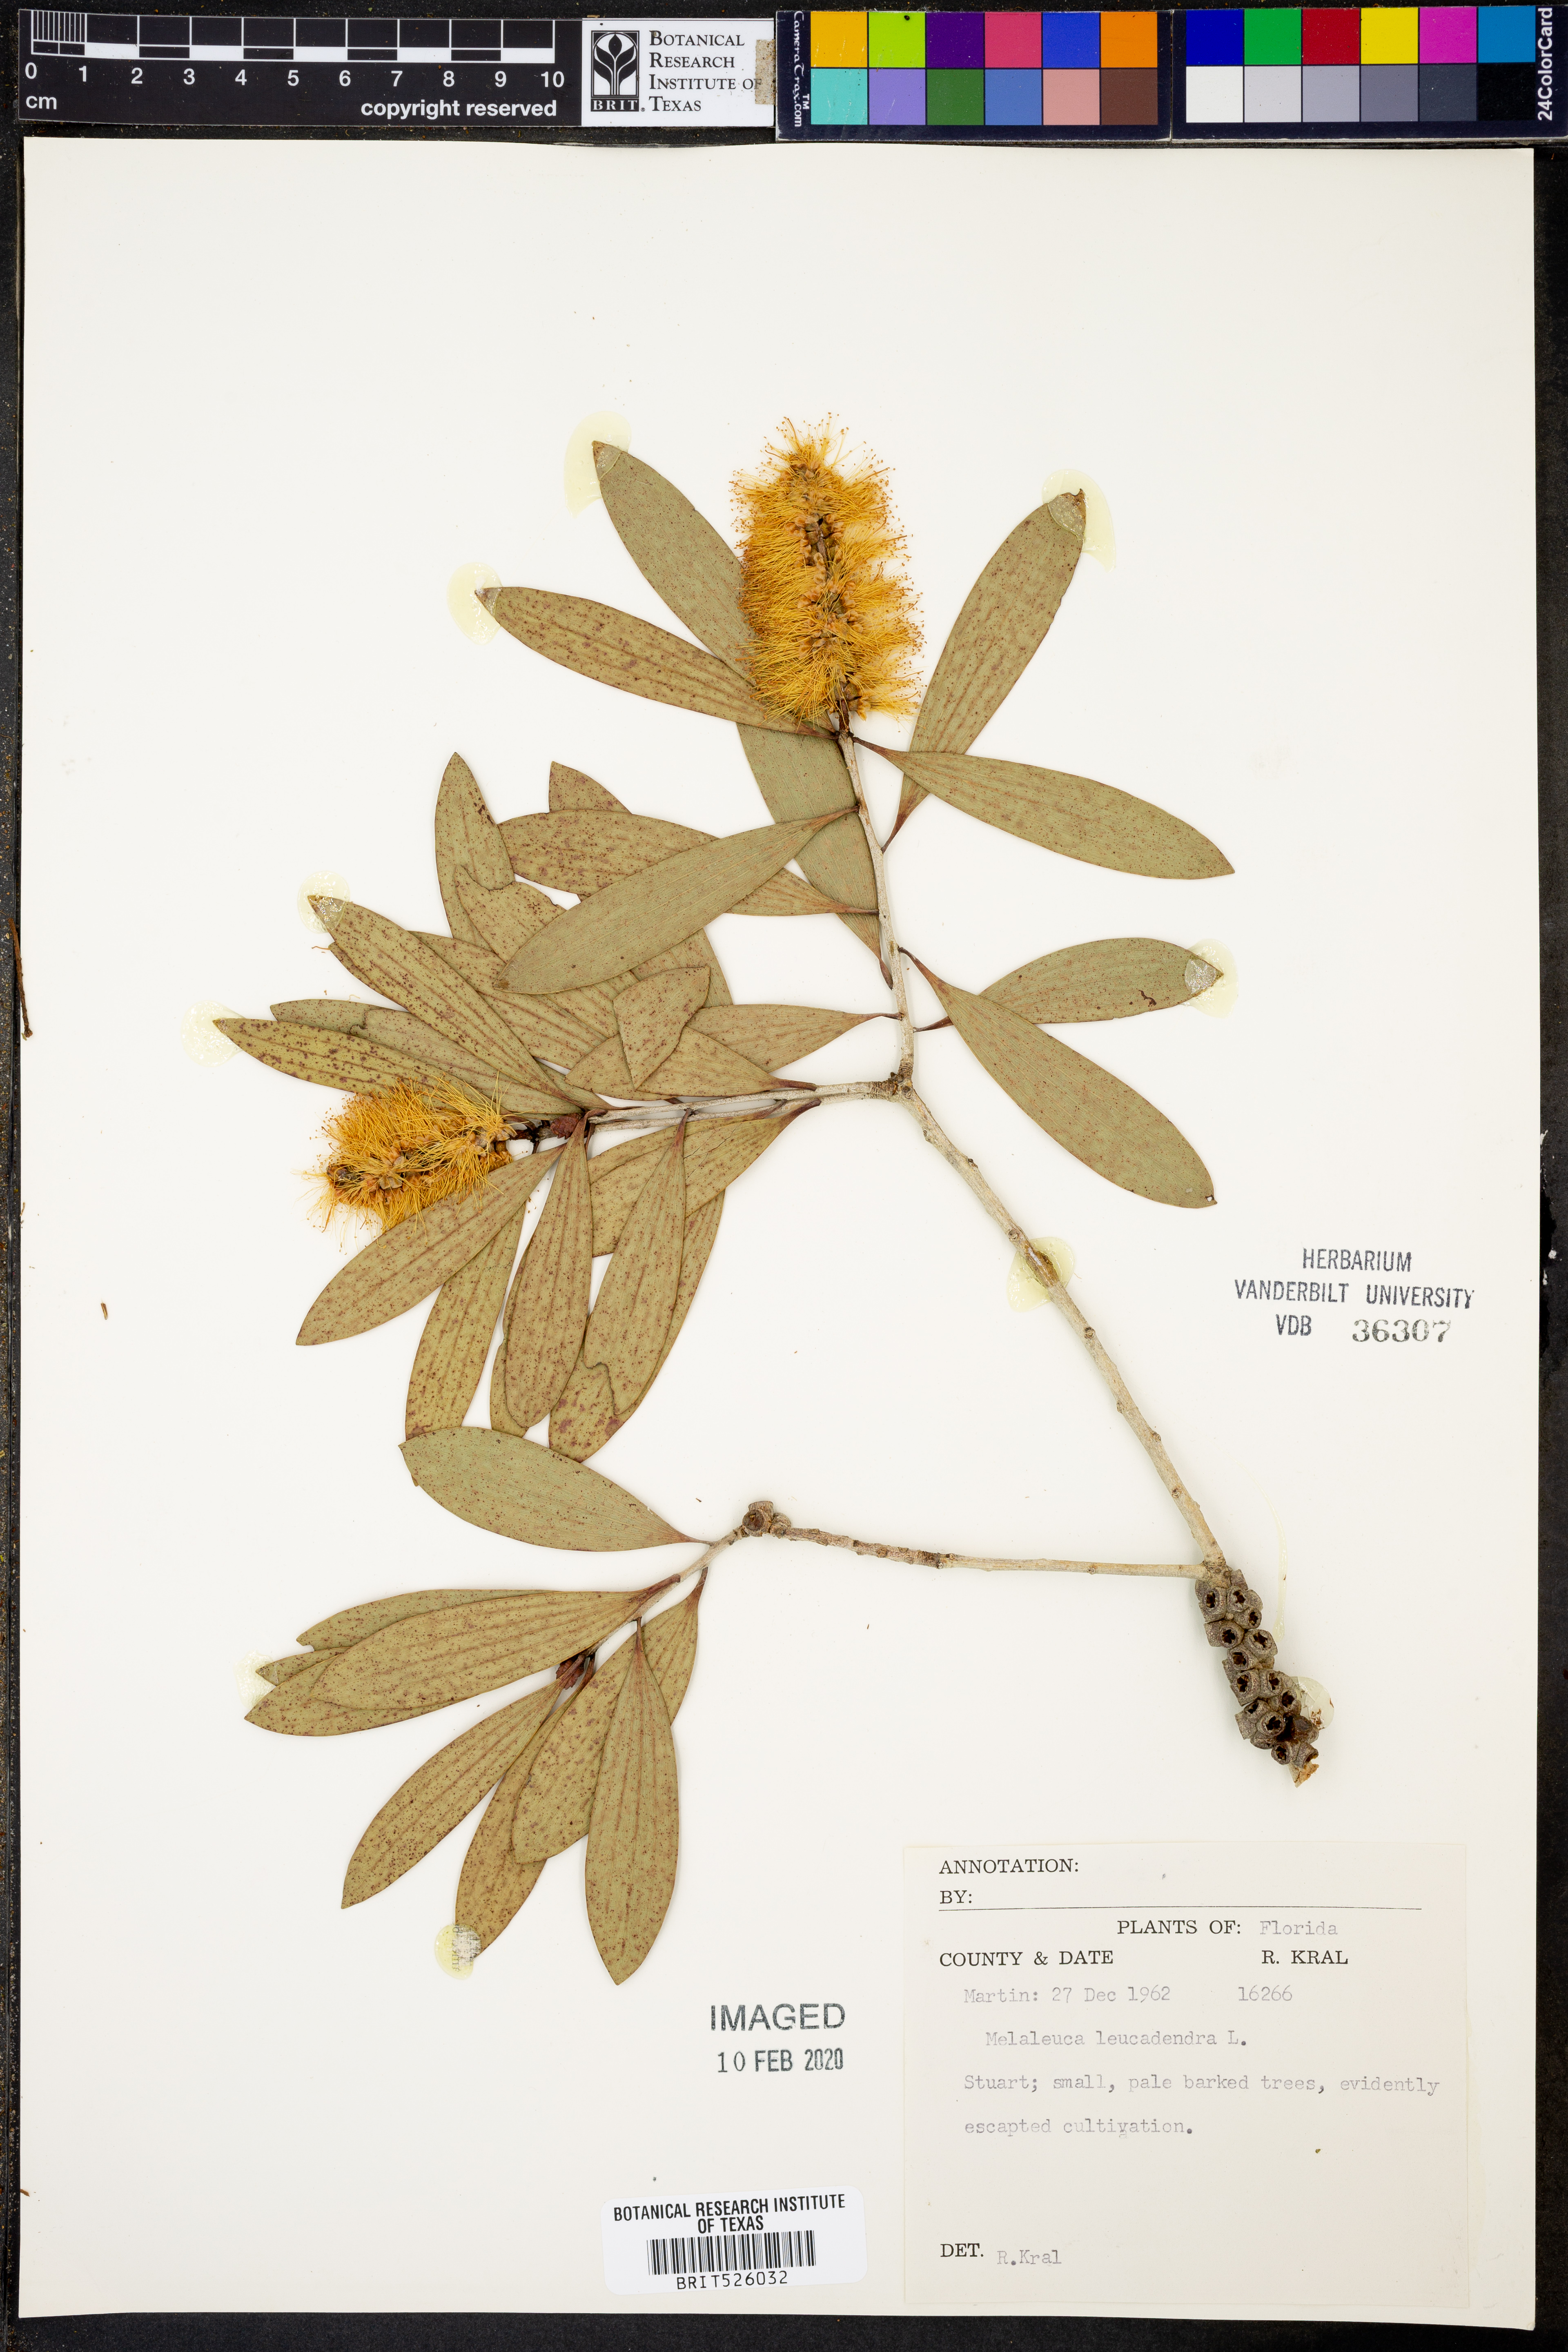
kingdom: Plantae
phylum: Tracheophyta
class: Magnoliopsida
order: Myrtales
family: Myrtaceae
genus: Melaleuca
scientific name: Melaleuca leucadendra
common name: Weeping paperbark
